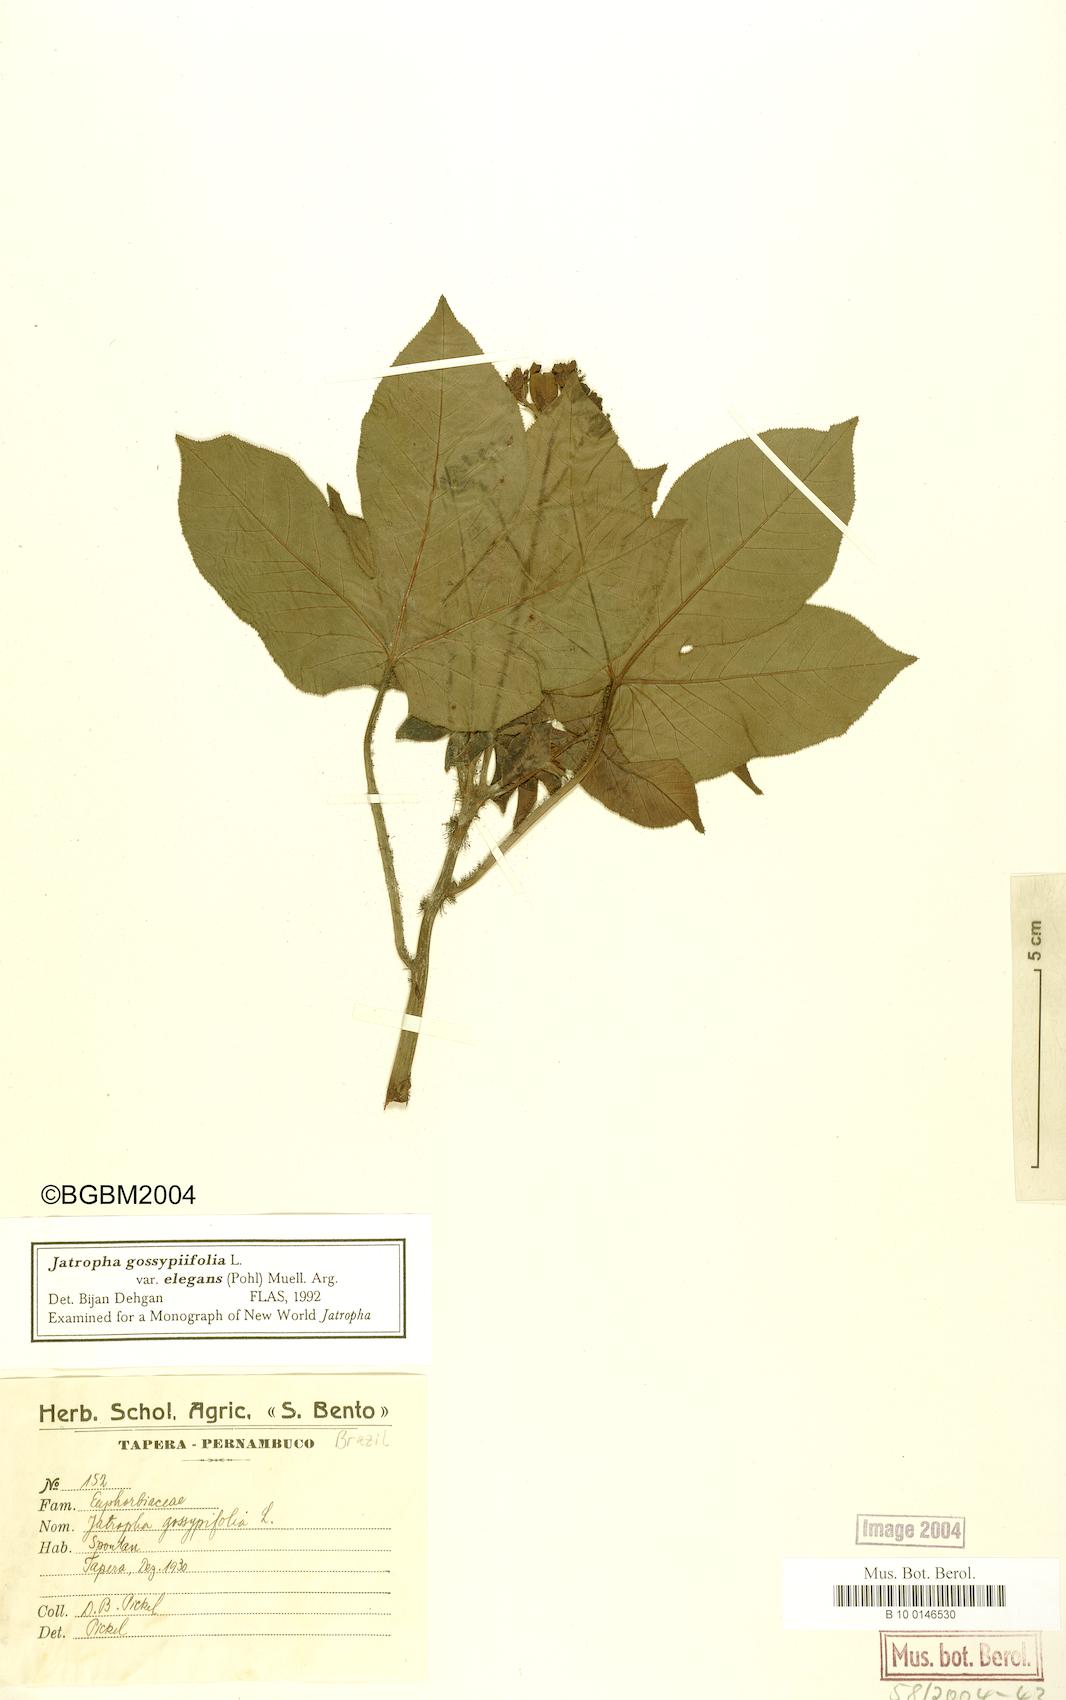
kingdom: Plantae
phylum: Tracheophyta
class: Magnoliopsida
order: Malpighiales
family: Euphorbiaceae
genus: Jatropha
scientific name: Jatropha gossypiifolia
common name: Bellyache bush
